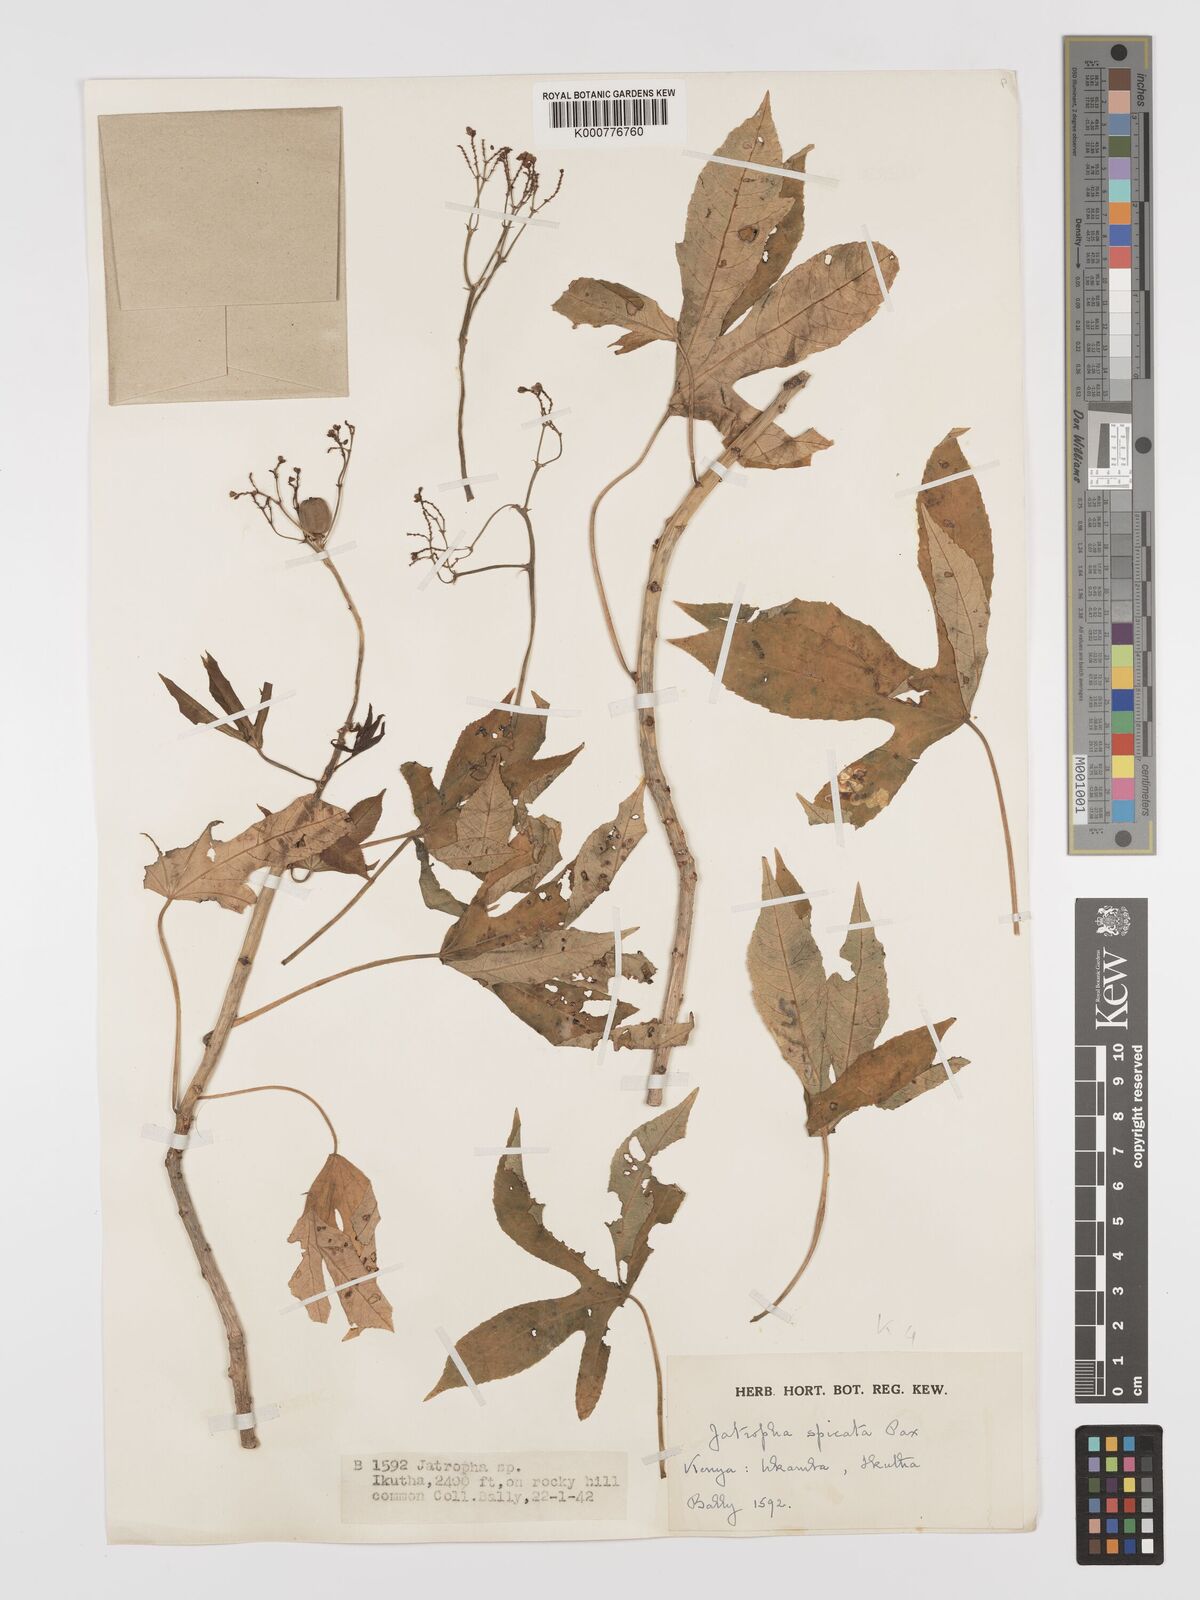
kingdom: Plantae
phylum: Tracheophyta
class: Magnoliopsida
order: Malpighiales
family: Euphorbiaceae
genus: Jatropha
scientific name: Jatropha spicata
